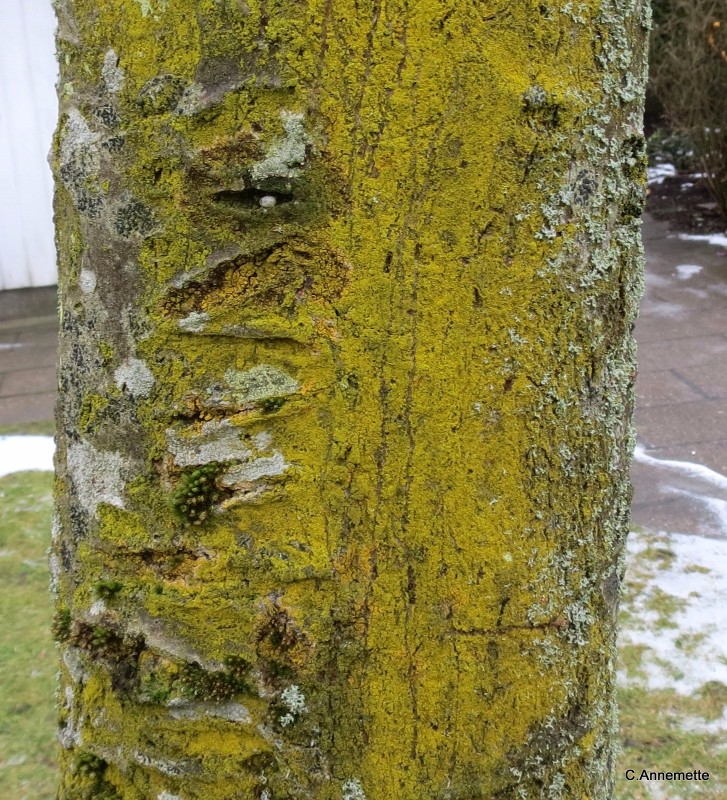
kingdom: Fungi
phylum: Ascomycota
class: Candelariomycetes
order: Candelariales
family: Candelariaceae
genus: Candelaria
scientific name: Candelaria pacifica
